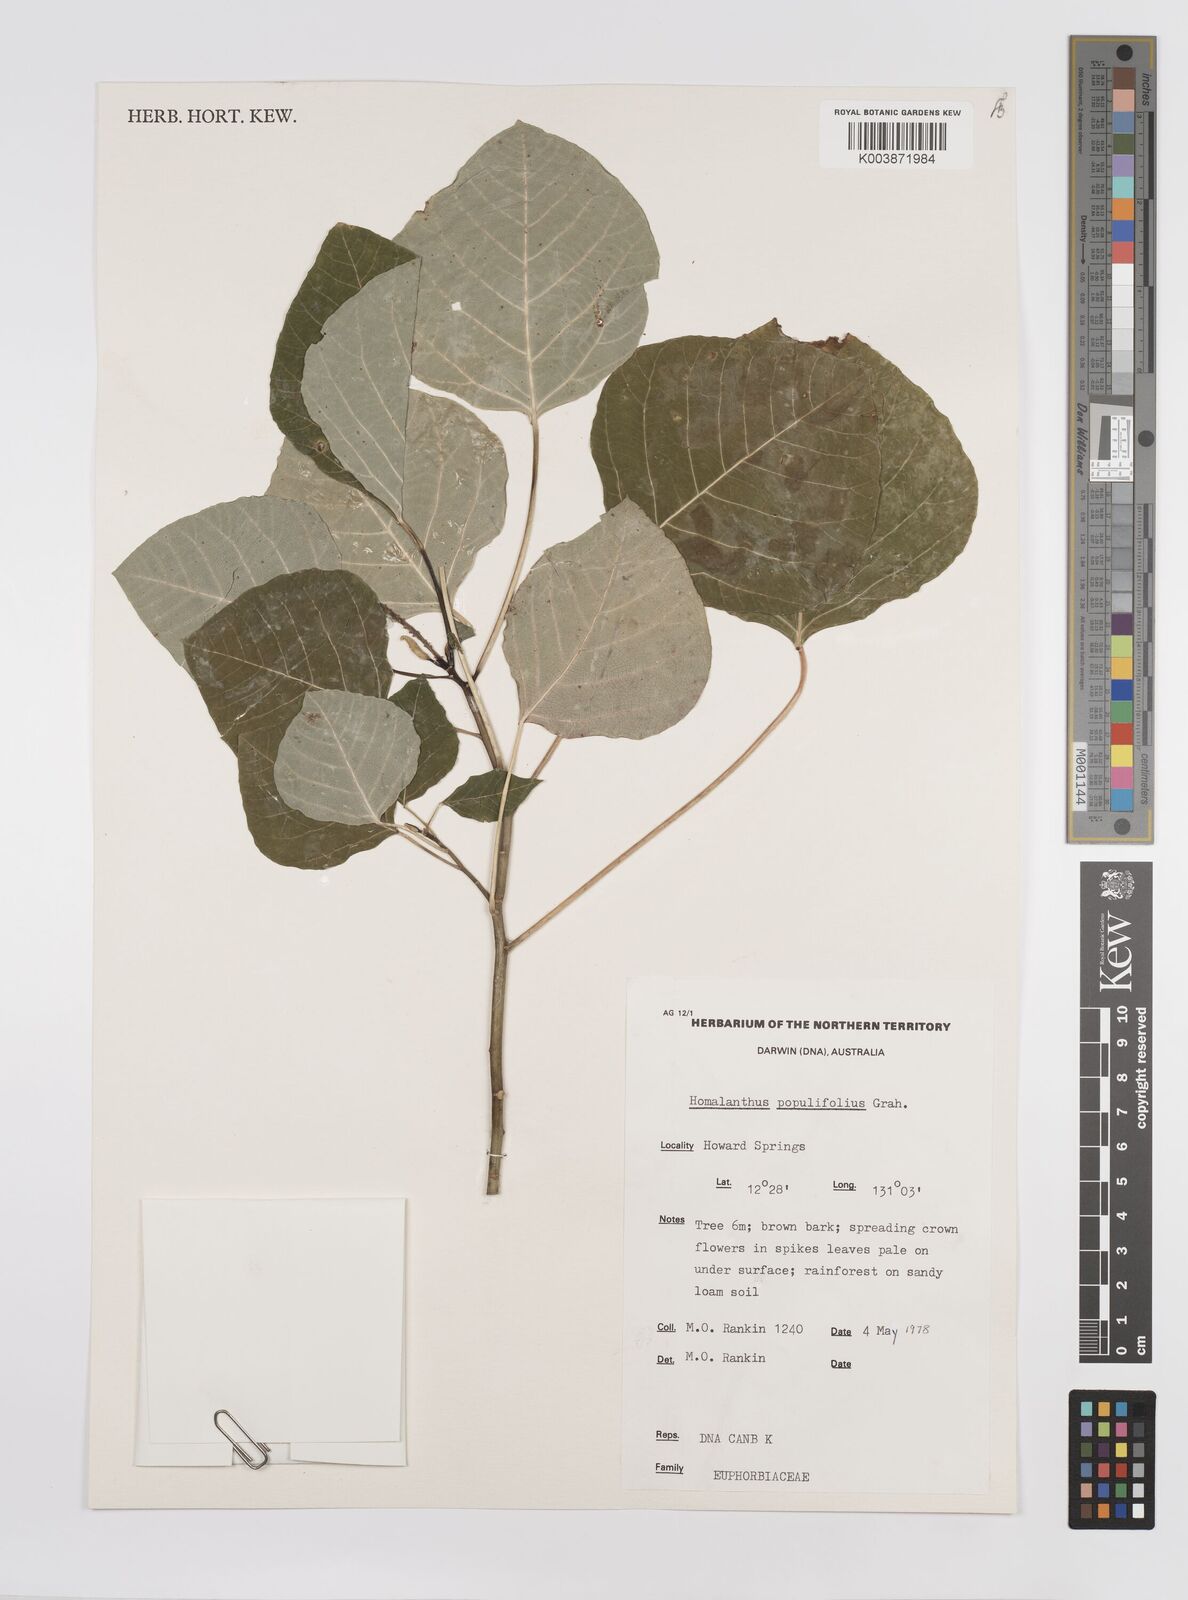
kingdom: Plantae
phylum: Tracheophyta
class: Magnoliopsida
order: Malpighiales
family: Euphorbiaceae
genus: Homalanthus
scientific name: Homalanthus novoguineensis
